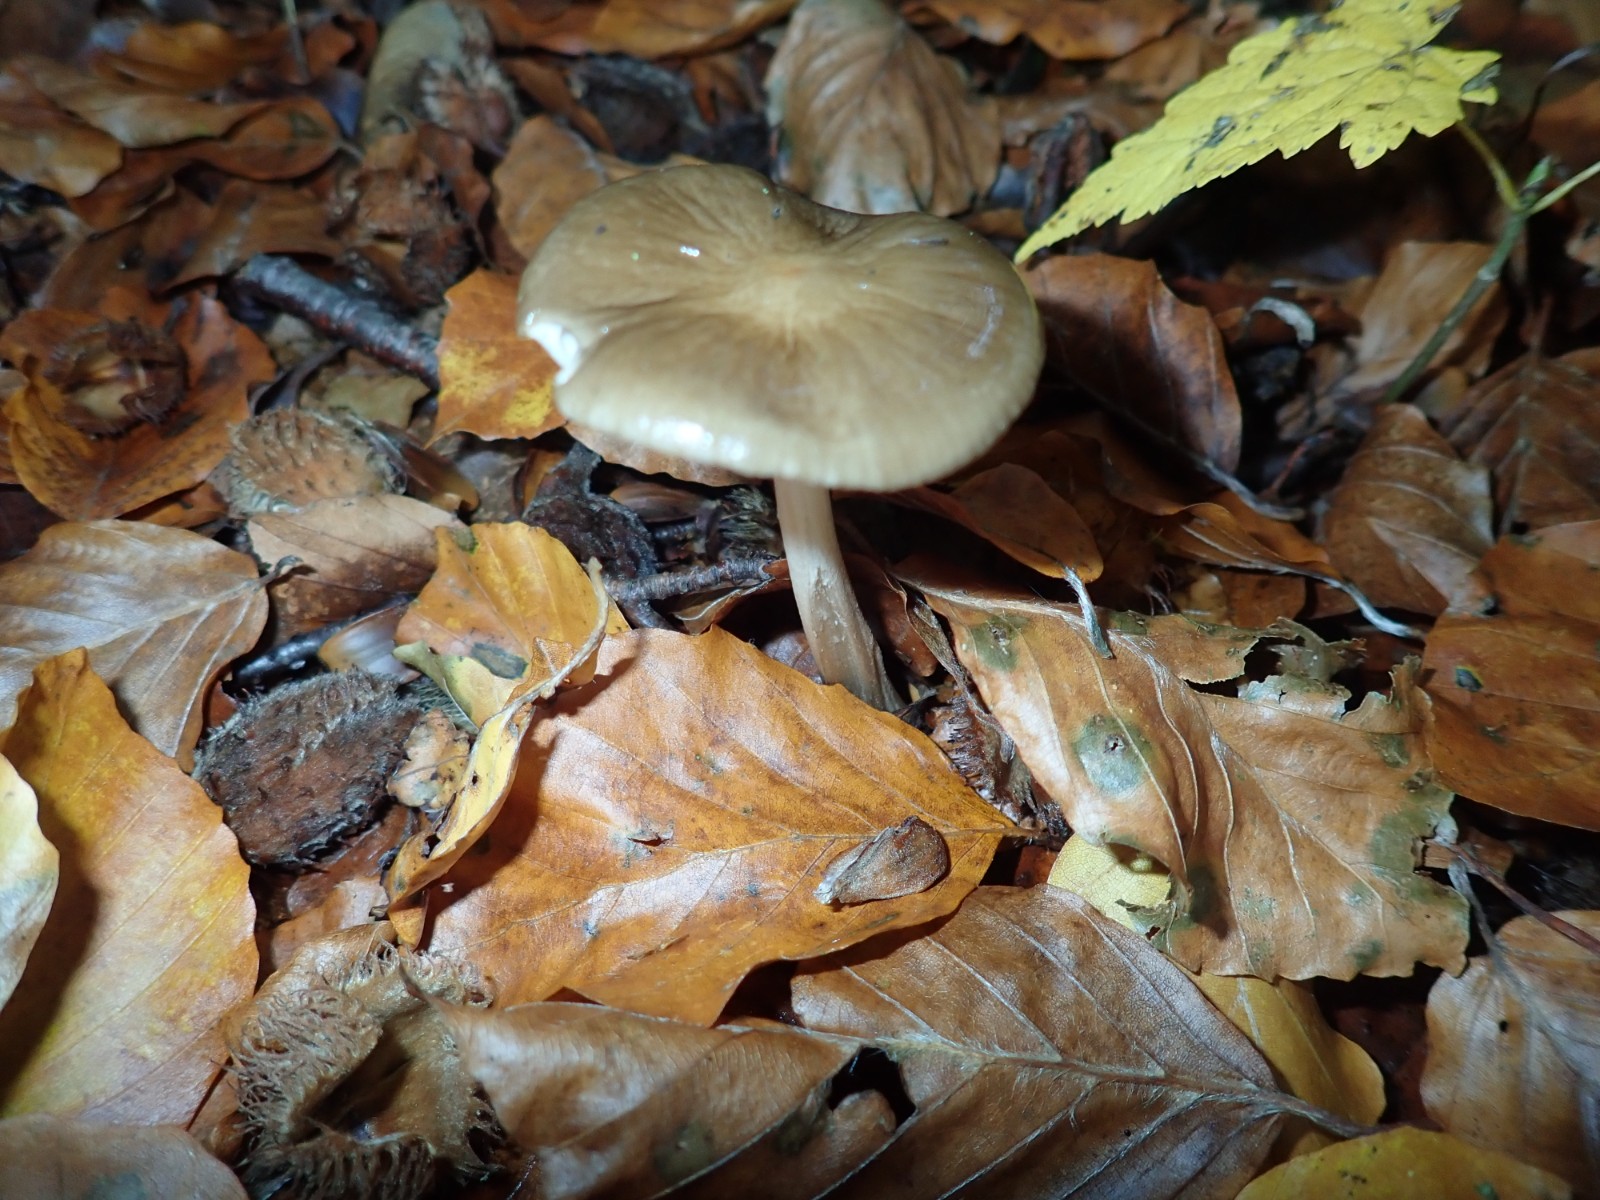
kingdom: Fungi
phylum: Basidiomycota
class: Agaricomycetes
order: Agaricales
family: Physalacriaceae
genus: Hymenopellis
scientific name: Hymenopellis radicata
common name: almindelig pælerodshat
